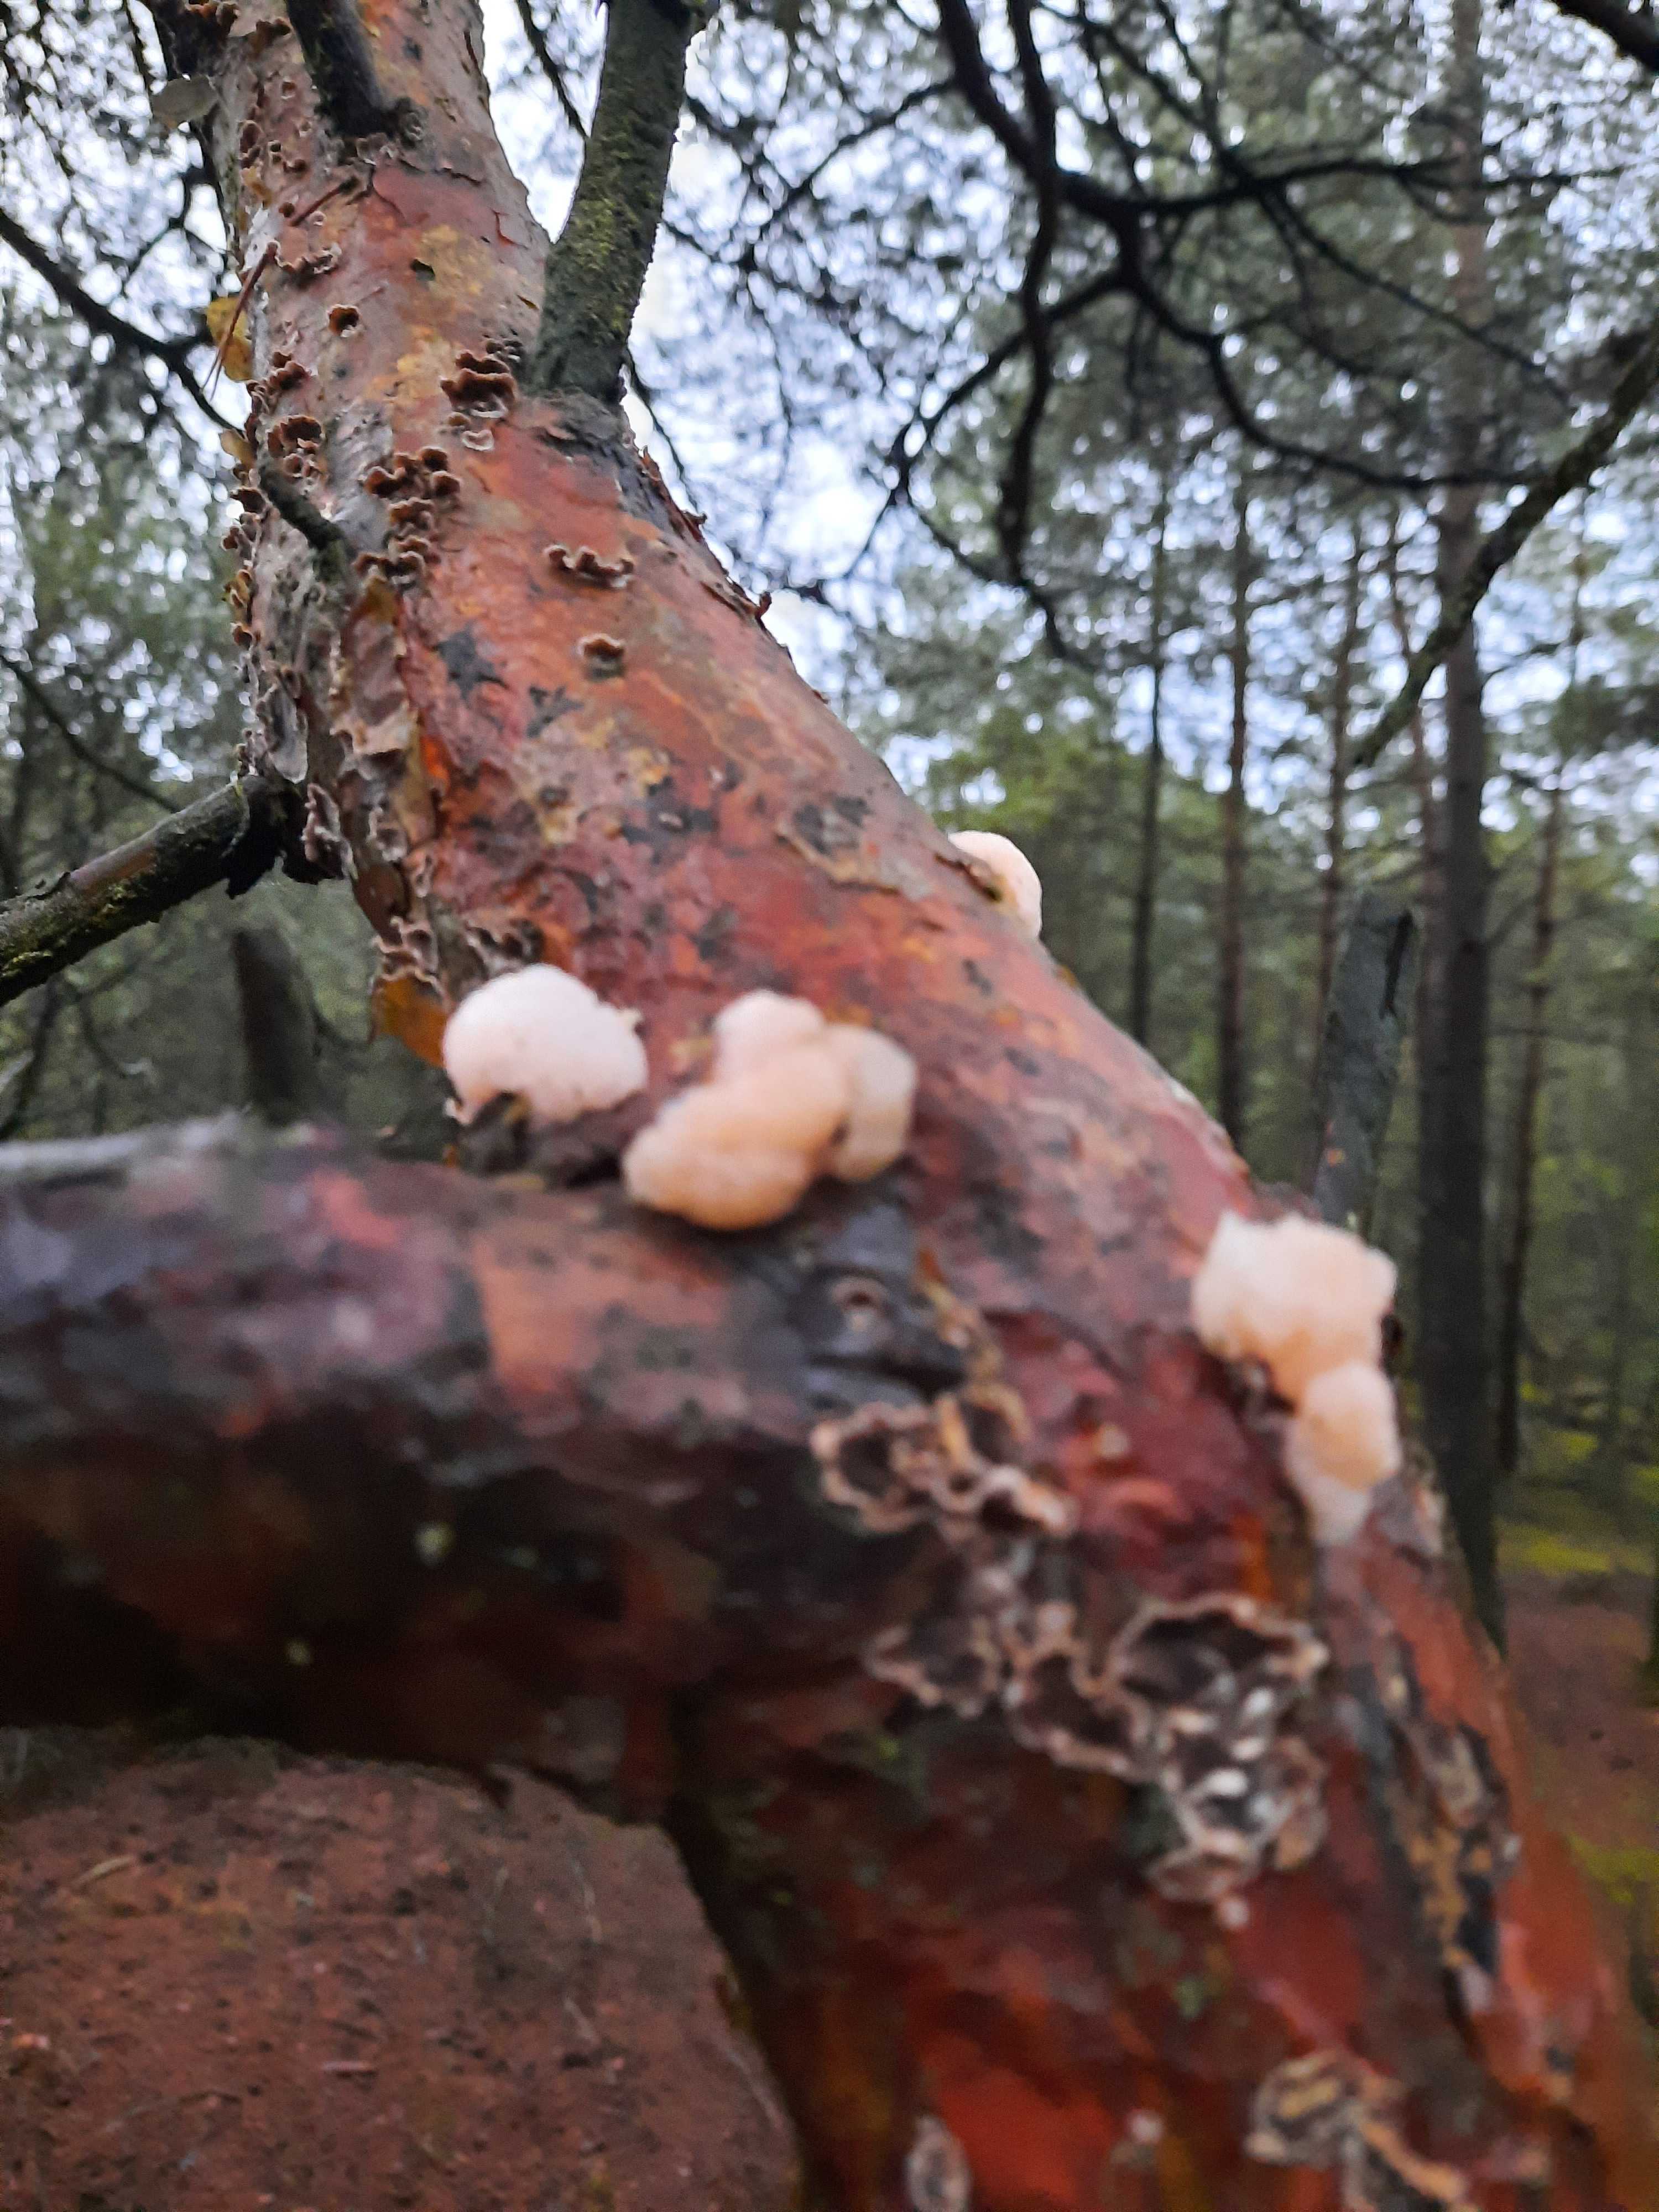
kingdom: Fungi
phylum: Basidiomycota
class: Tremellomycetes
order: Tremellales
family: Naemateliaceae
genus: Naematelia
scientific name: Naematelia encephala
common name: fyrre-bævresvamp
